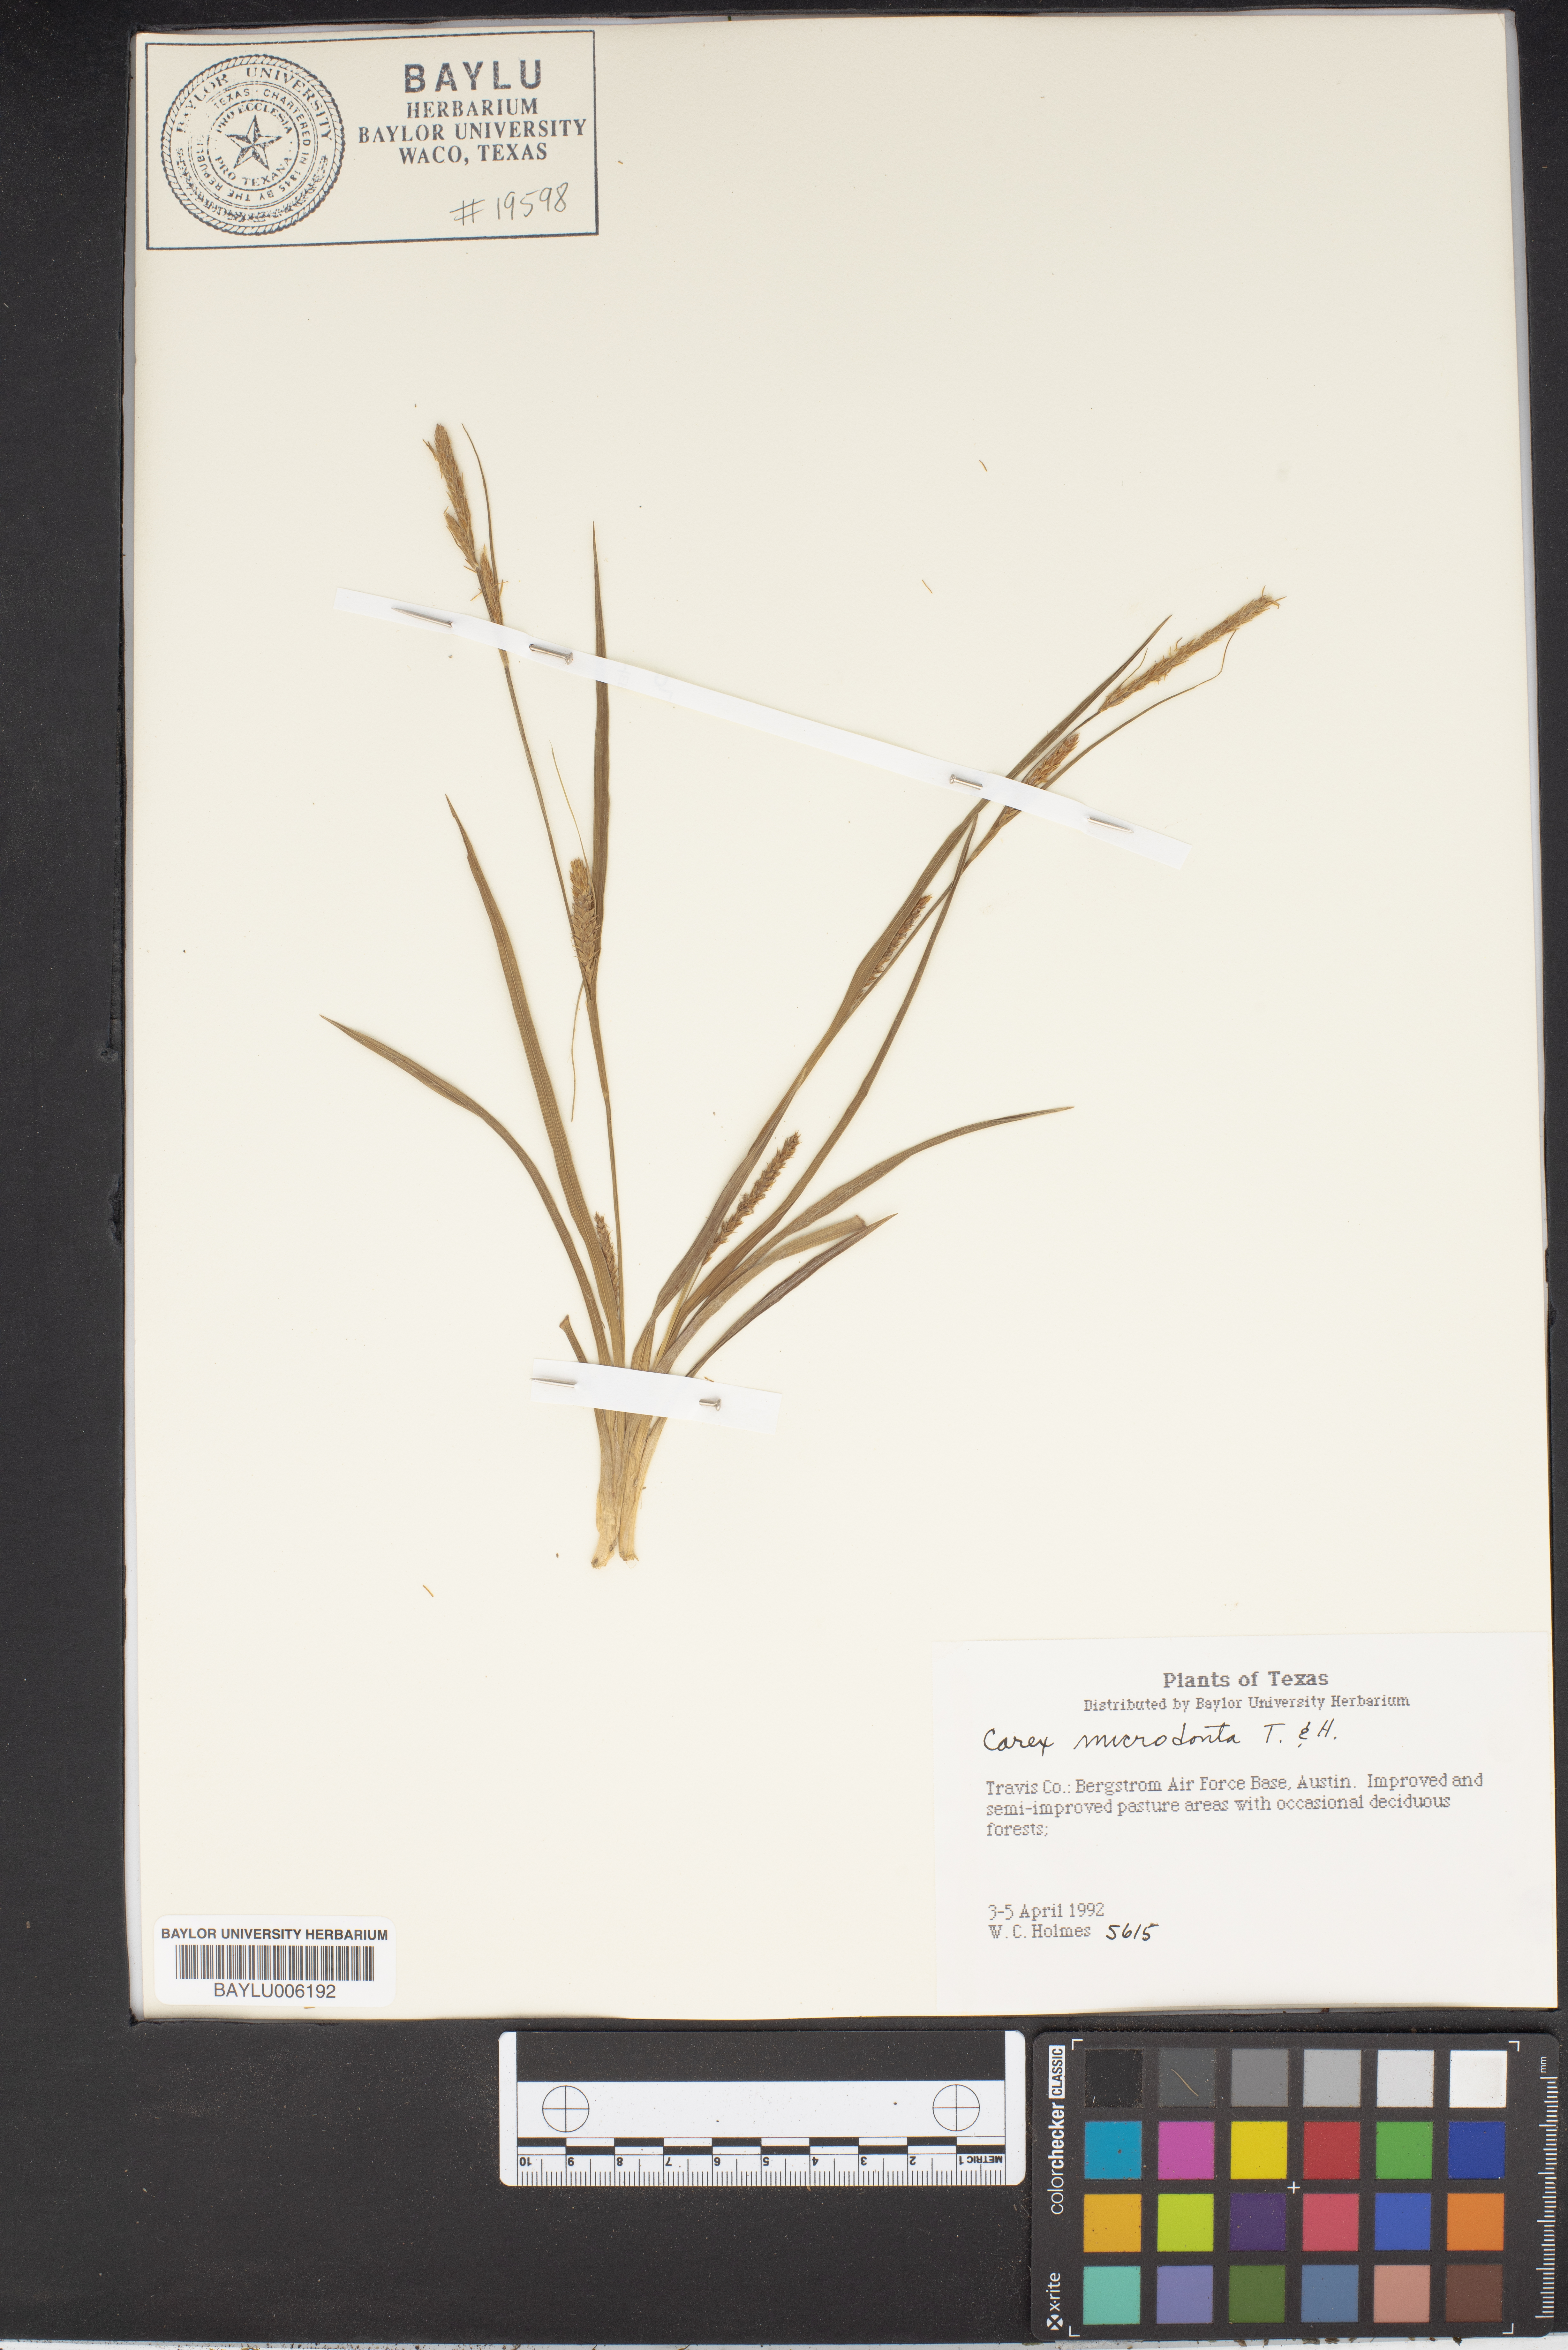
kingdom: Plantae
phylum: Tracheophyta
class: Liliopsida
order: Poales
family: Cyperaceae
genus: Carex
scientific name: Carex microdonta
